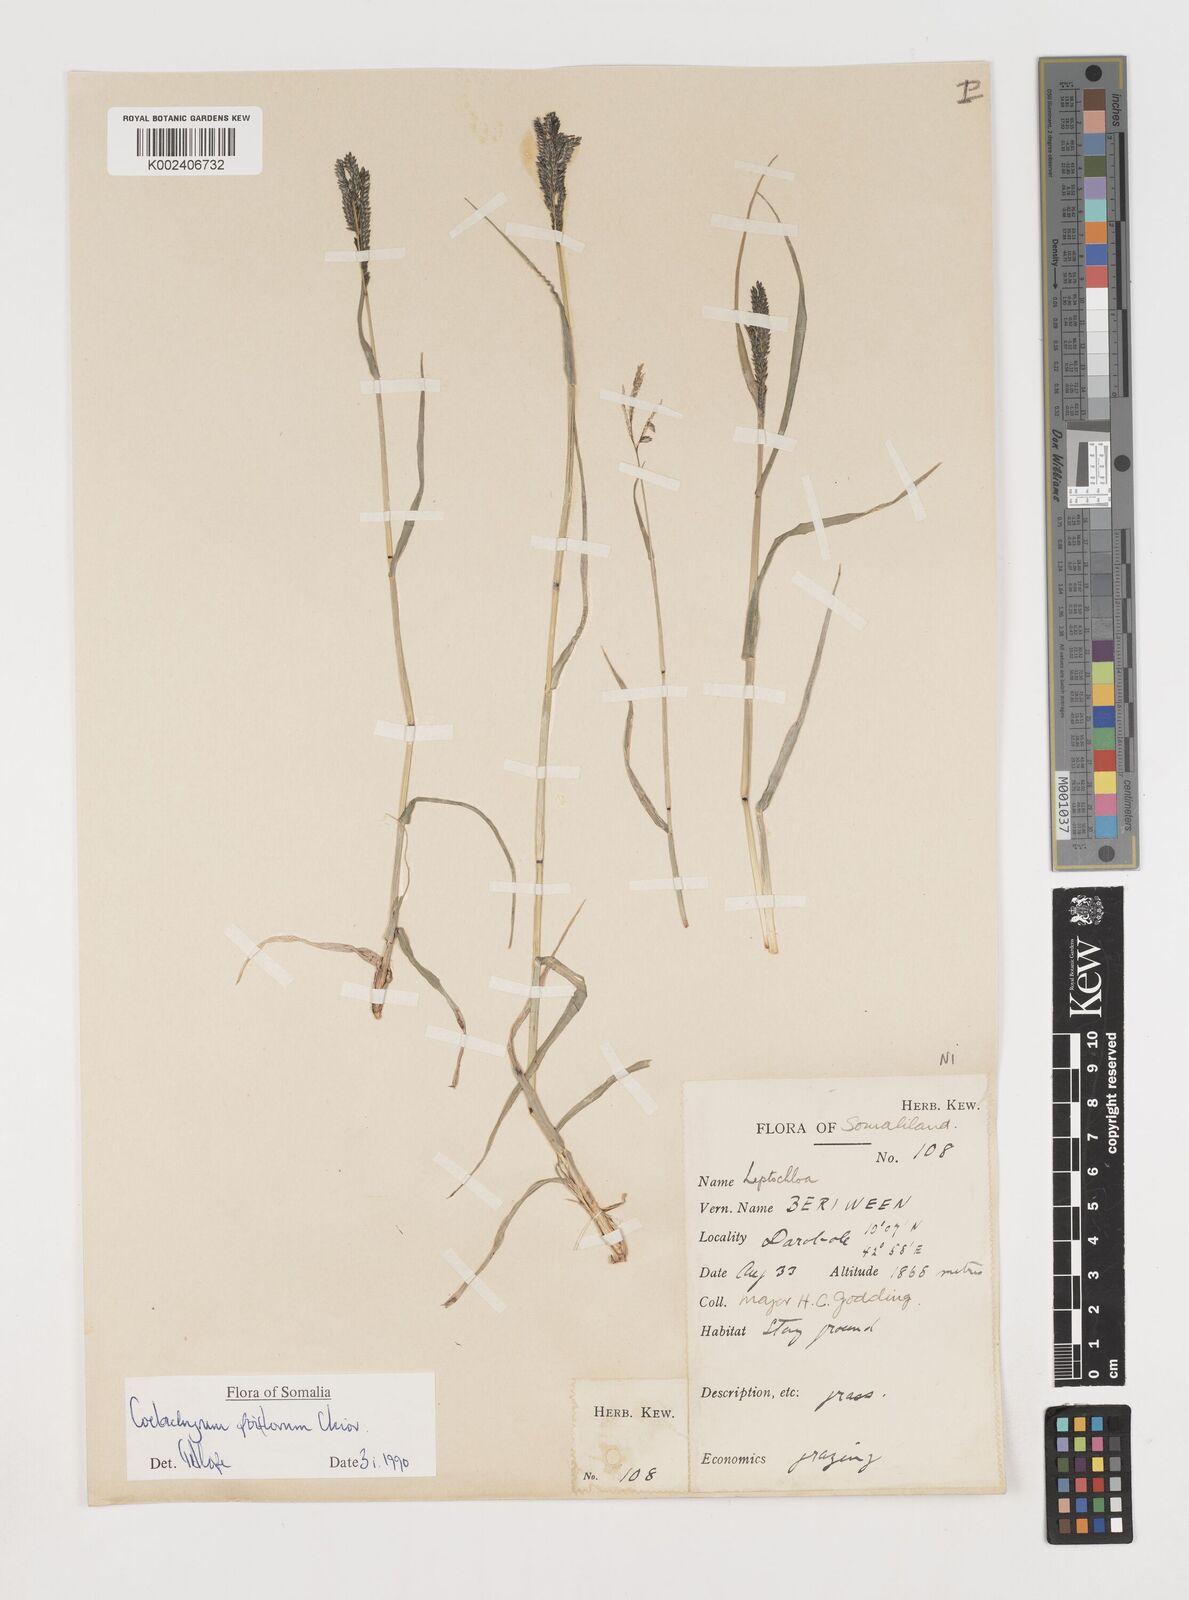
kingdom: Plantae
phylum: Tracheophyta
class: Liliopsida
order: Poales
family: Poaceae
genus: Coelachyrum
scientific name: Coelachyrum poiflorum
